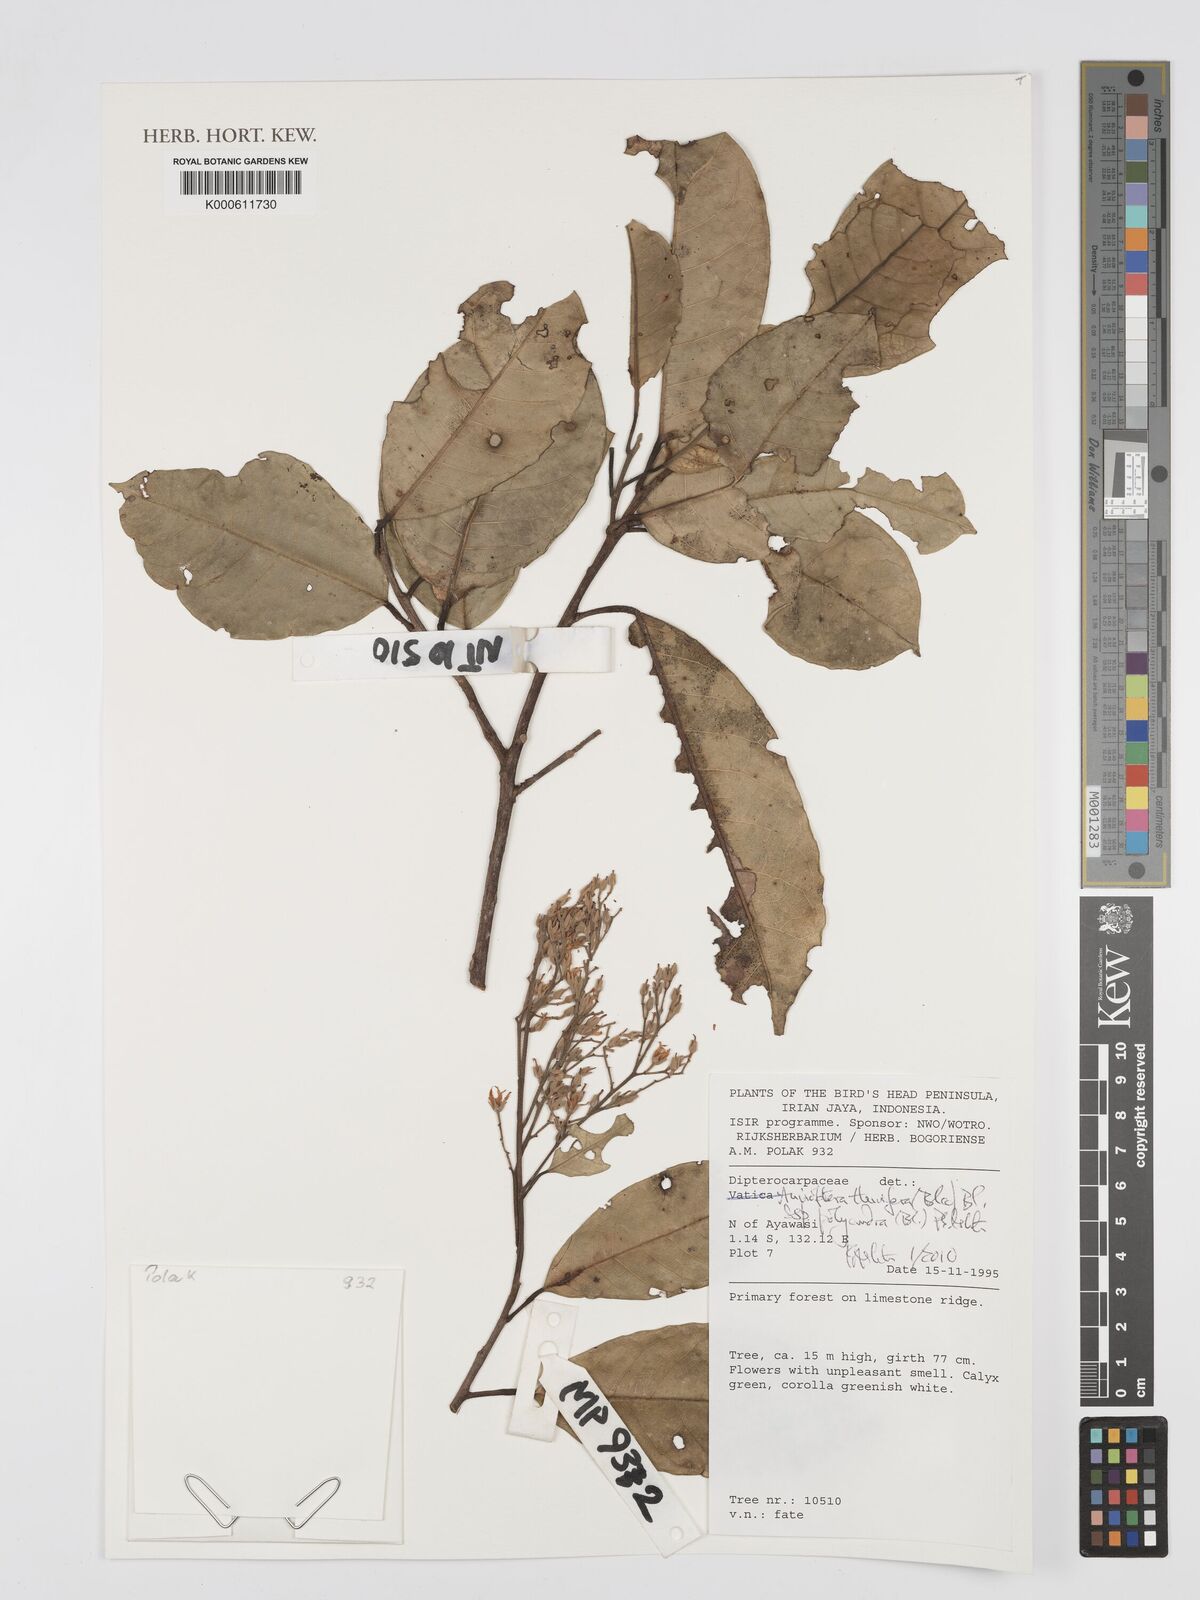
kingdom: Plantae
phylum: Tracheophyta
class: Magnoliopsida
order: Malvales
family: Dipterocarpaceae
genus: Anisoptera
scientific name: Anisoptera thurifera
